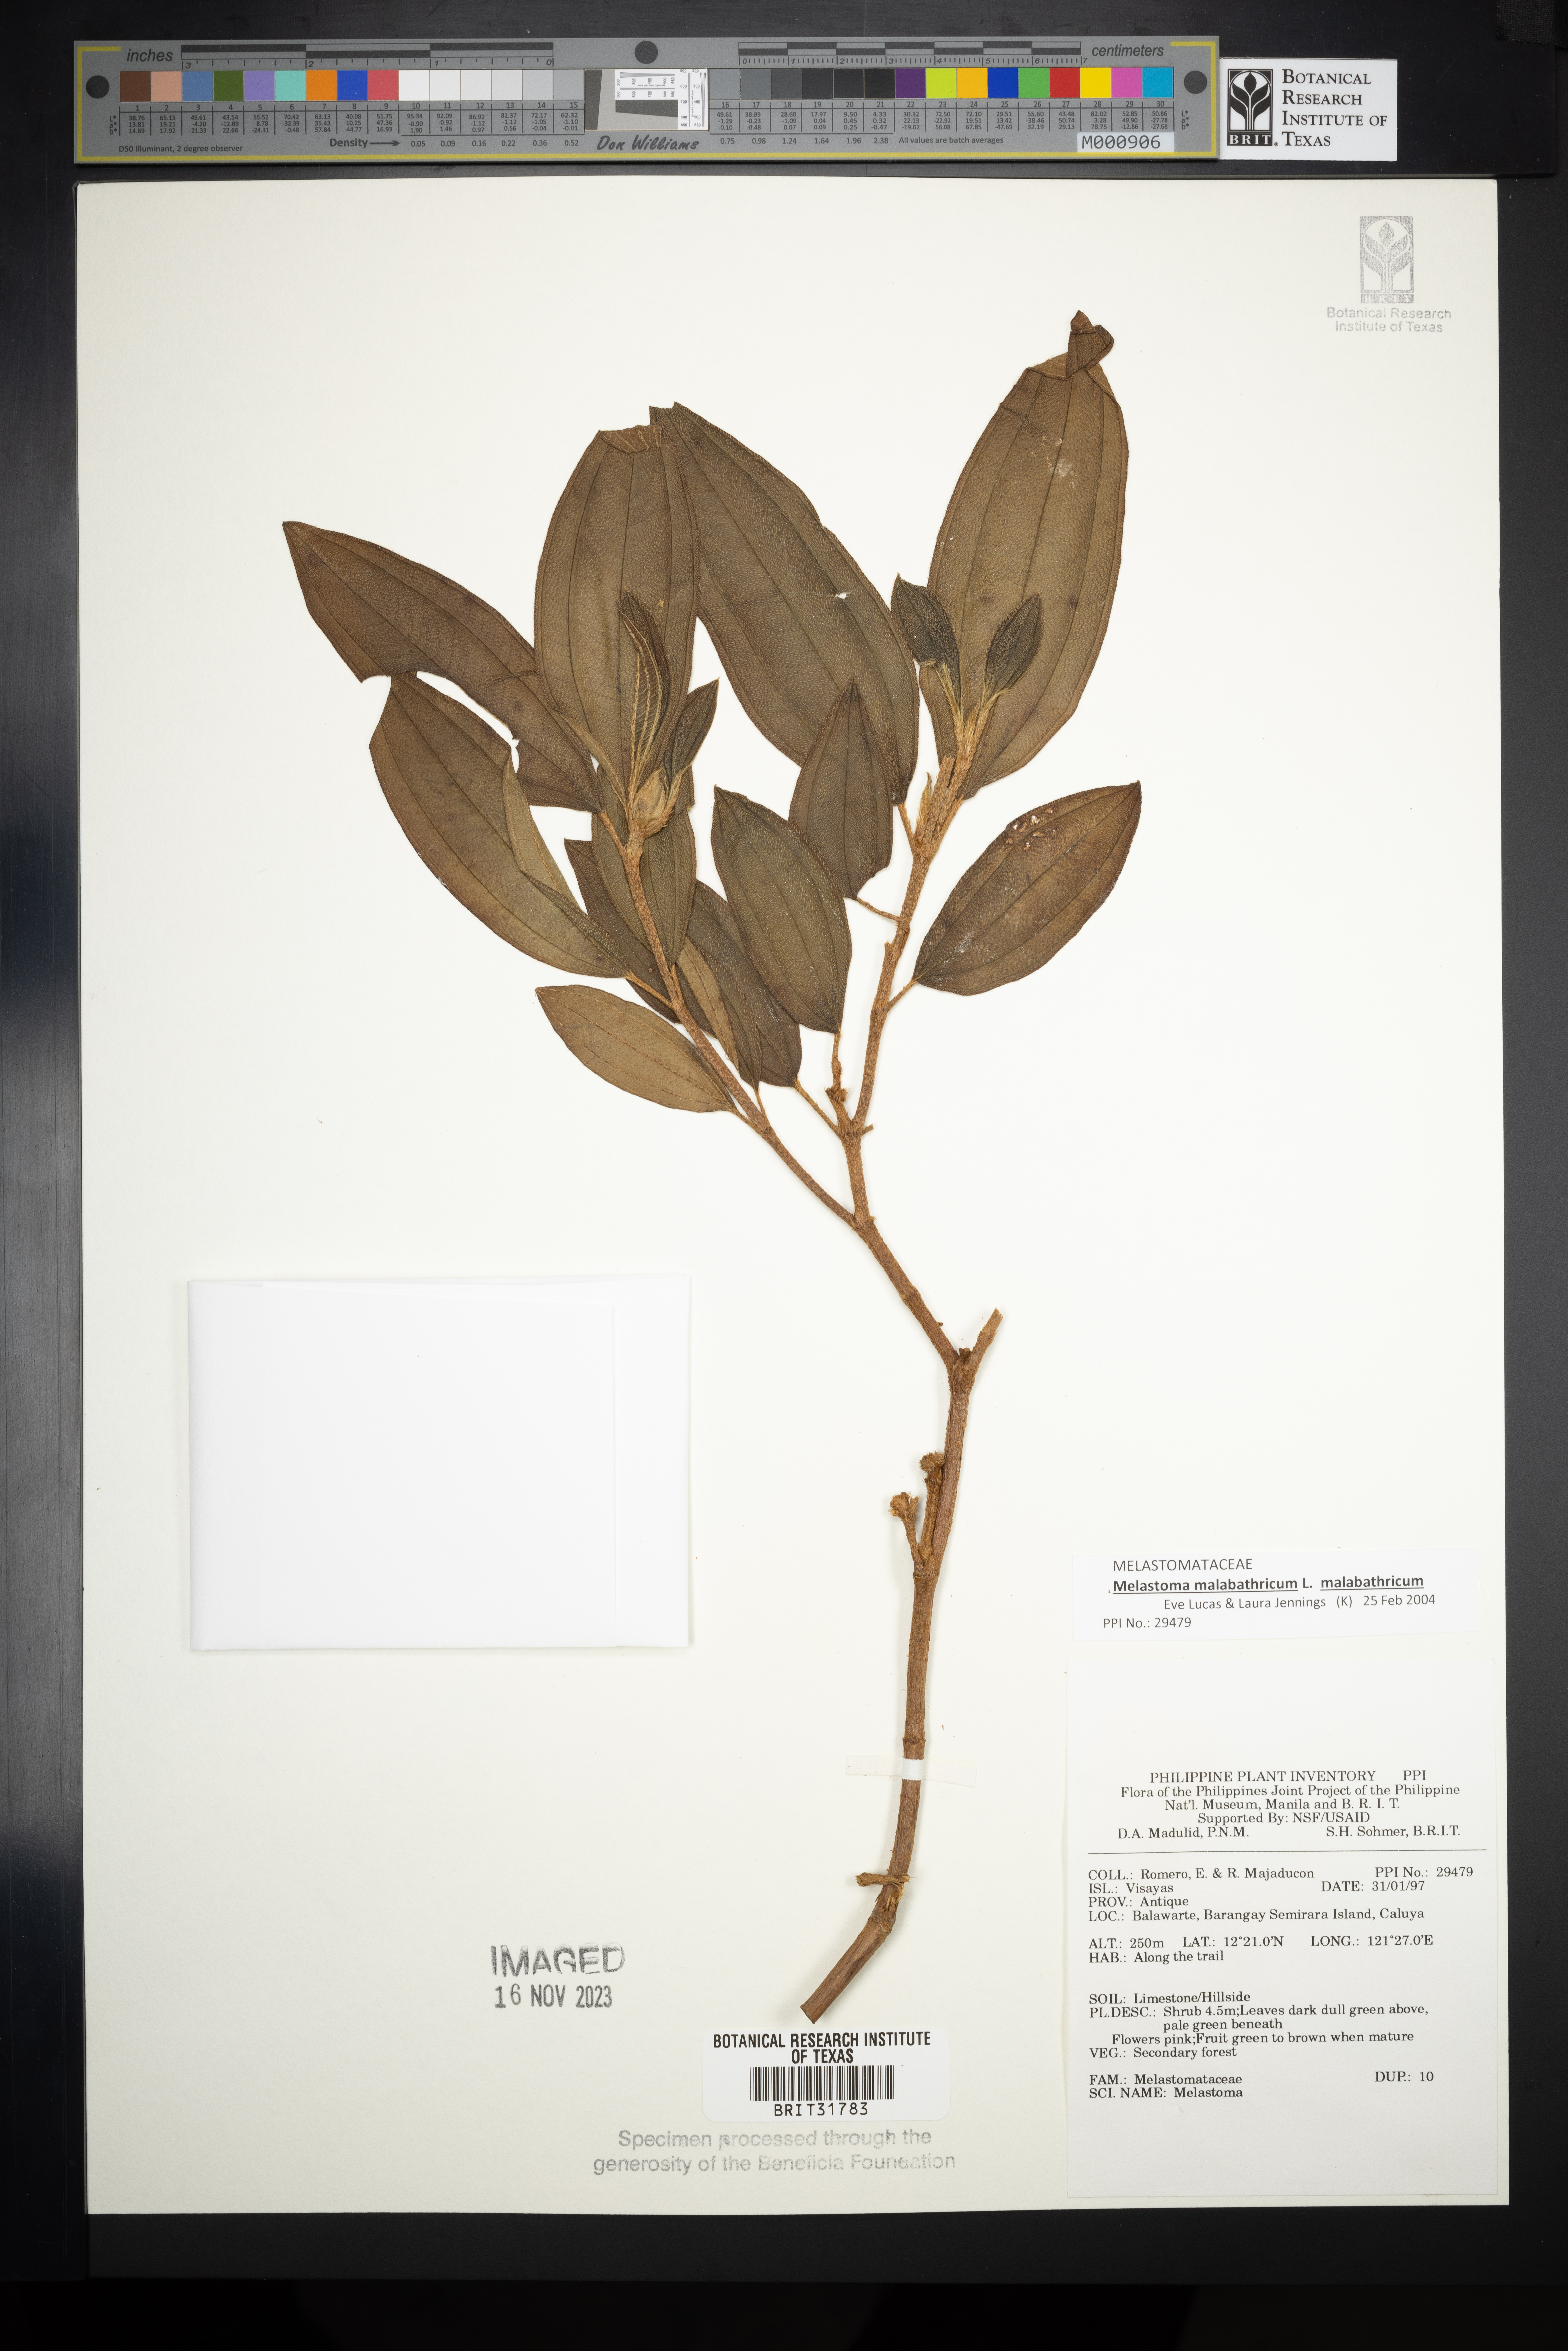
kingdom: Plantae
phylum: Tracheophyta
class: Magnoliopsida
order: Myrtales
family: Melastomataceae
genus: Melastoma
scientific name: Melastoma
